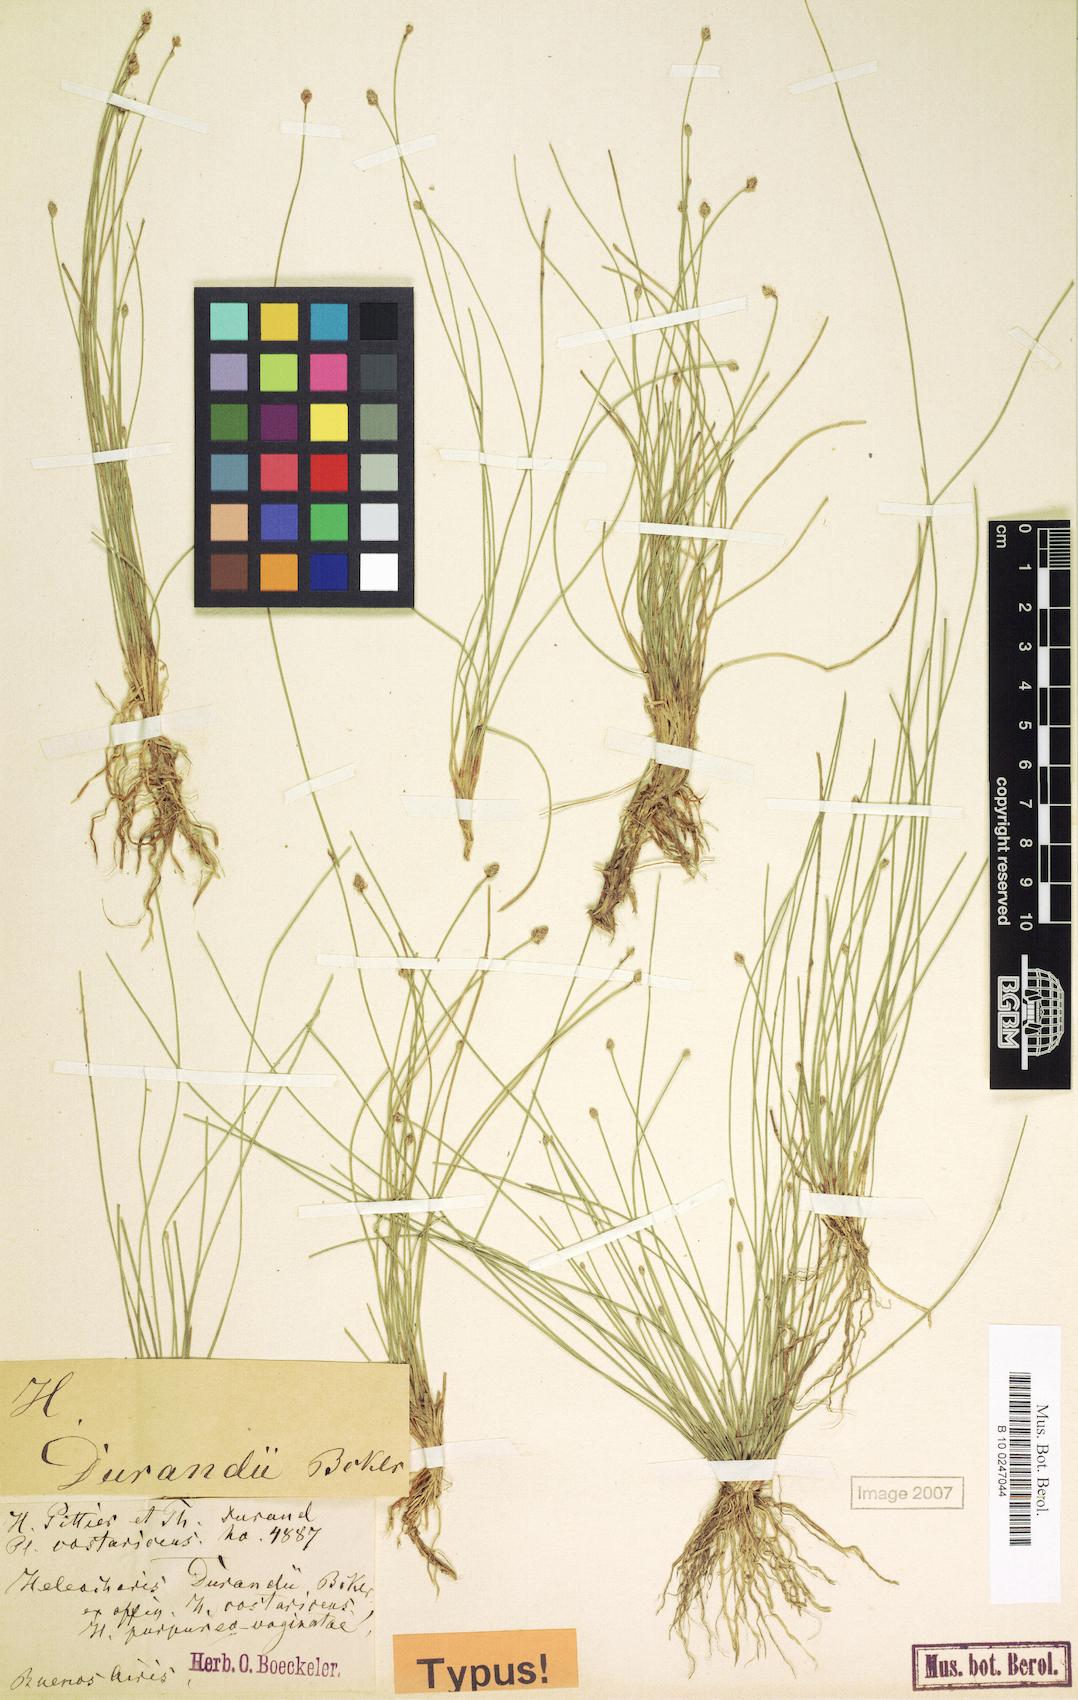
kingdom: Plantae
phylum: Tracheophyta
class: Liliopsida
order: Poales
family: Cyperaceae
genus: Eleocharis
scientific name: Eleocharis minima
